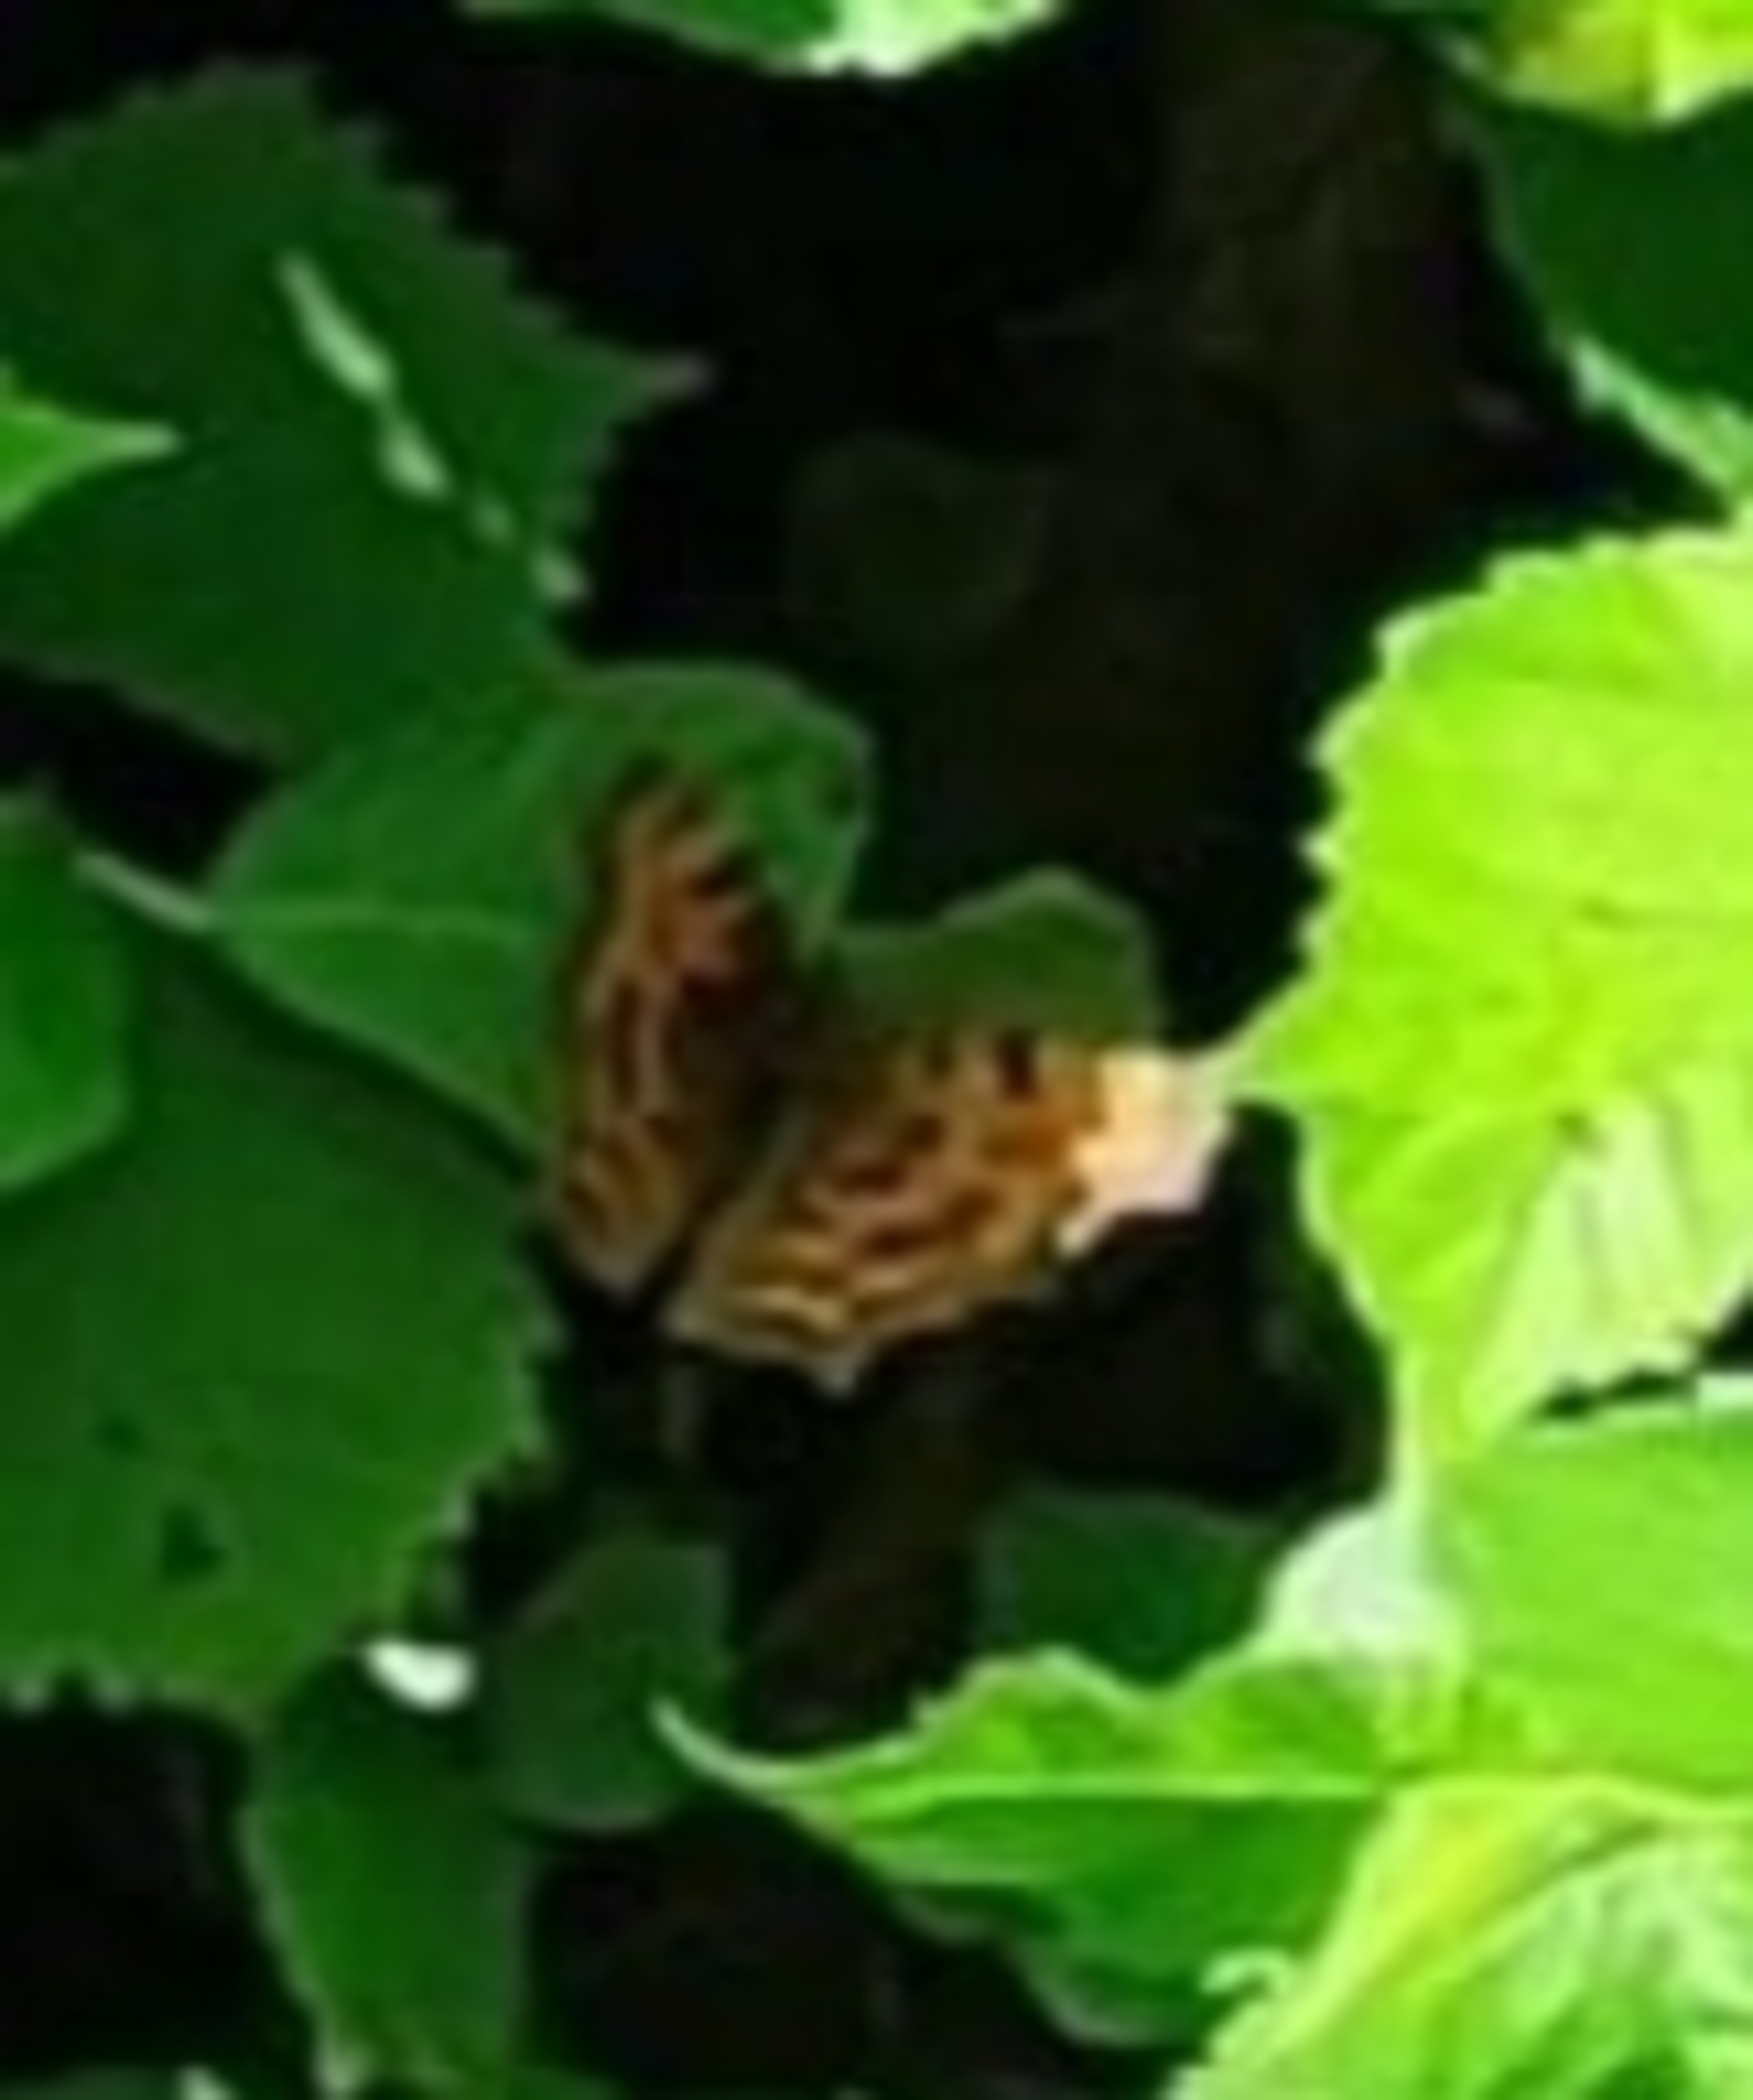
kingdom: Animalia
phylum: Arthropoda
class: Insecta
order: Lepidoptera
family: Nymphalidae
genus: Polygonia
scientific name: Polygonia c-album
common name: Det hvide C
